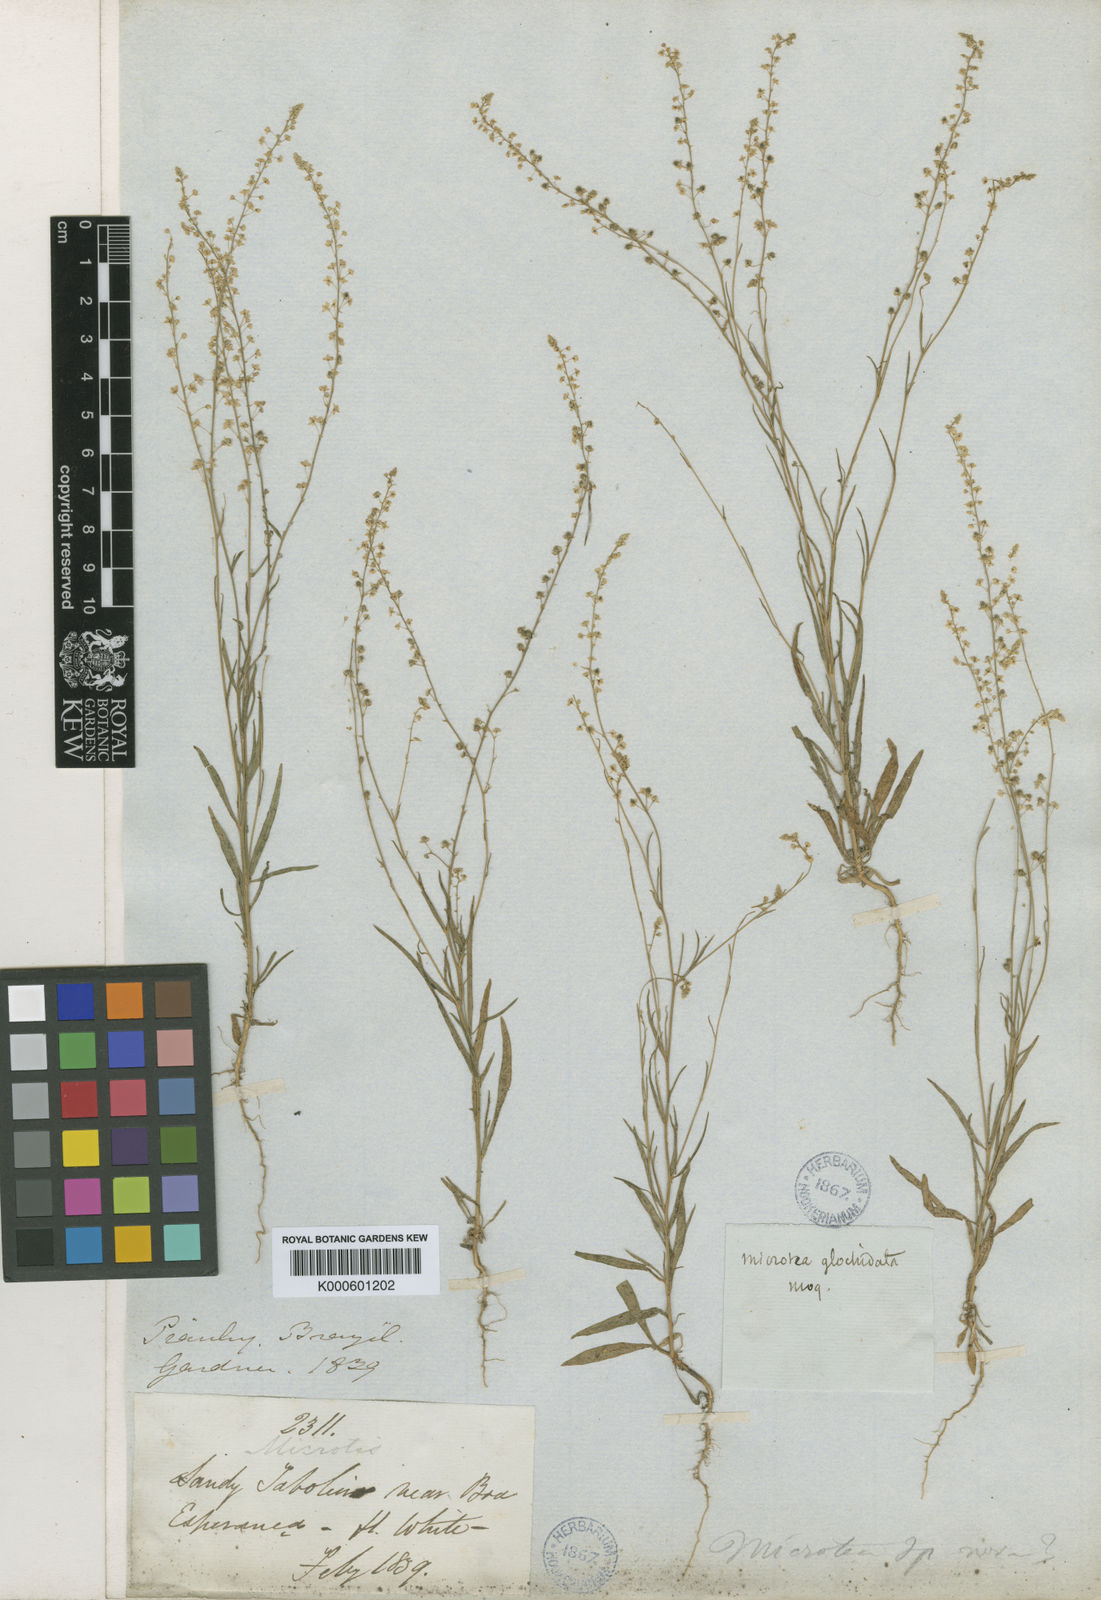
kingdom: Plantae
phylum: Tracheophyta
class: Magnoliopsida
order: Caryophyllales
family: Microteaceae
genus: Microtea
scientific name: Microtea glochidiata
